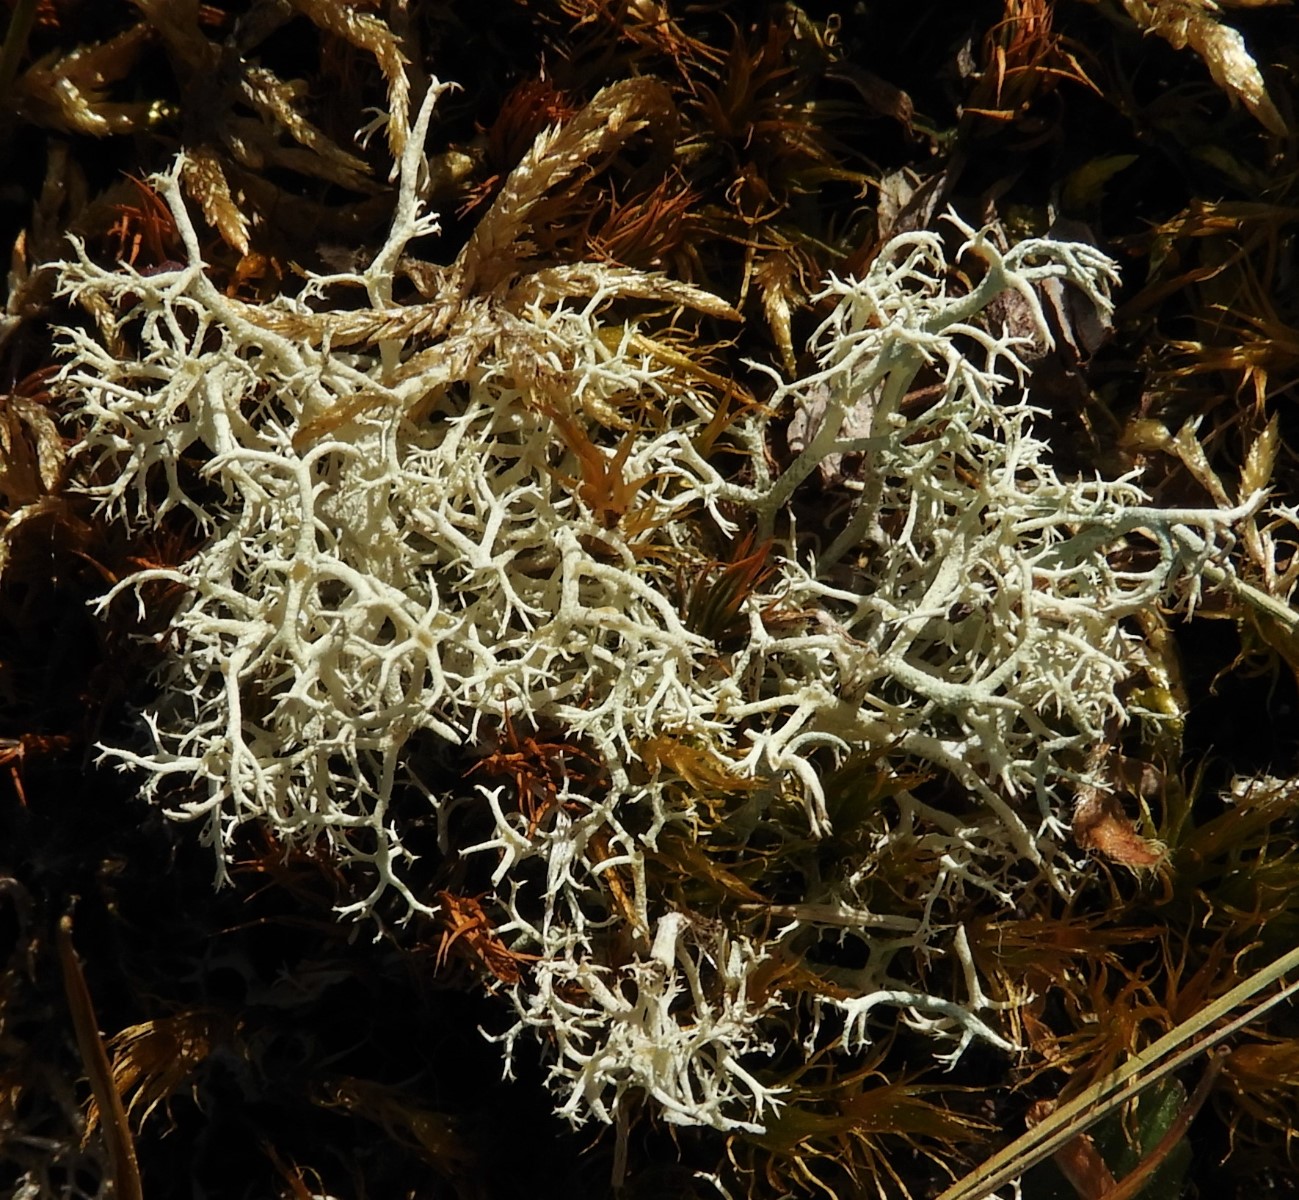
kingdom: Fungi
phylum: Ascomycota
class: Lecanoromycetes
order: Lecanorales
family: Cladoniaceae
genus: Cladonia
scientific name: Cladonia portentosa
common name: hede-rensdyrlav
